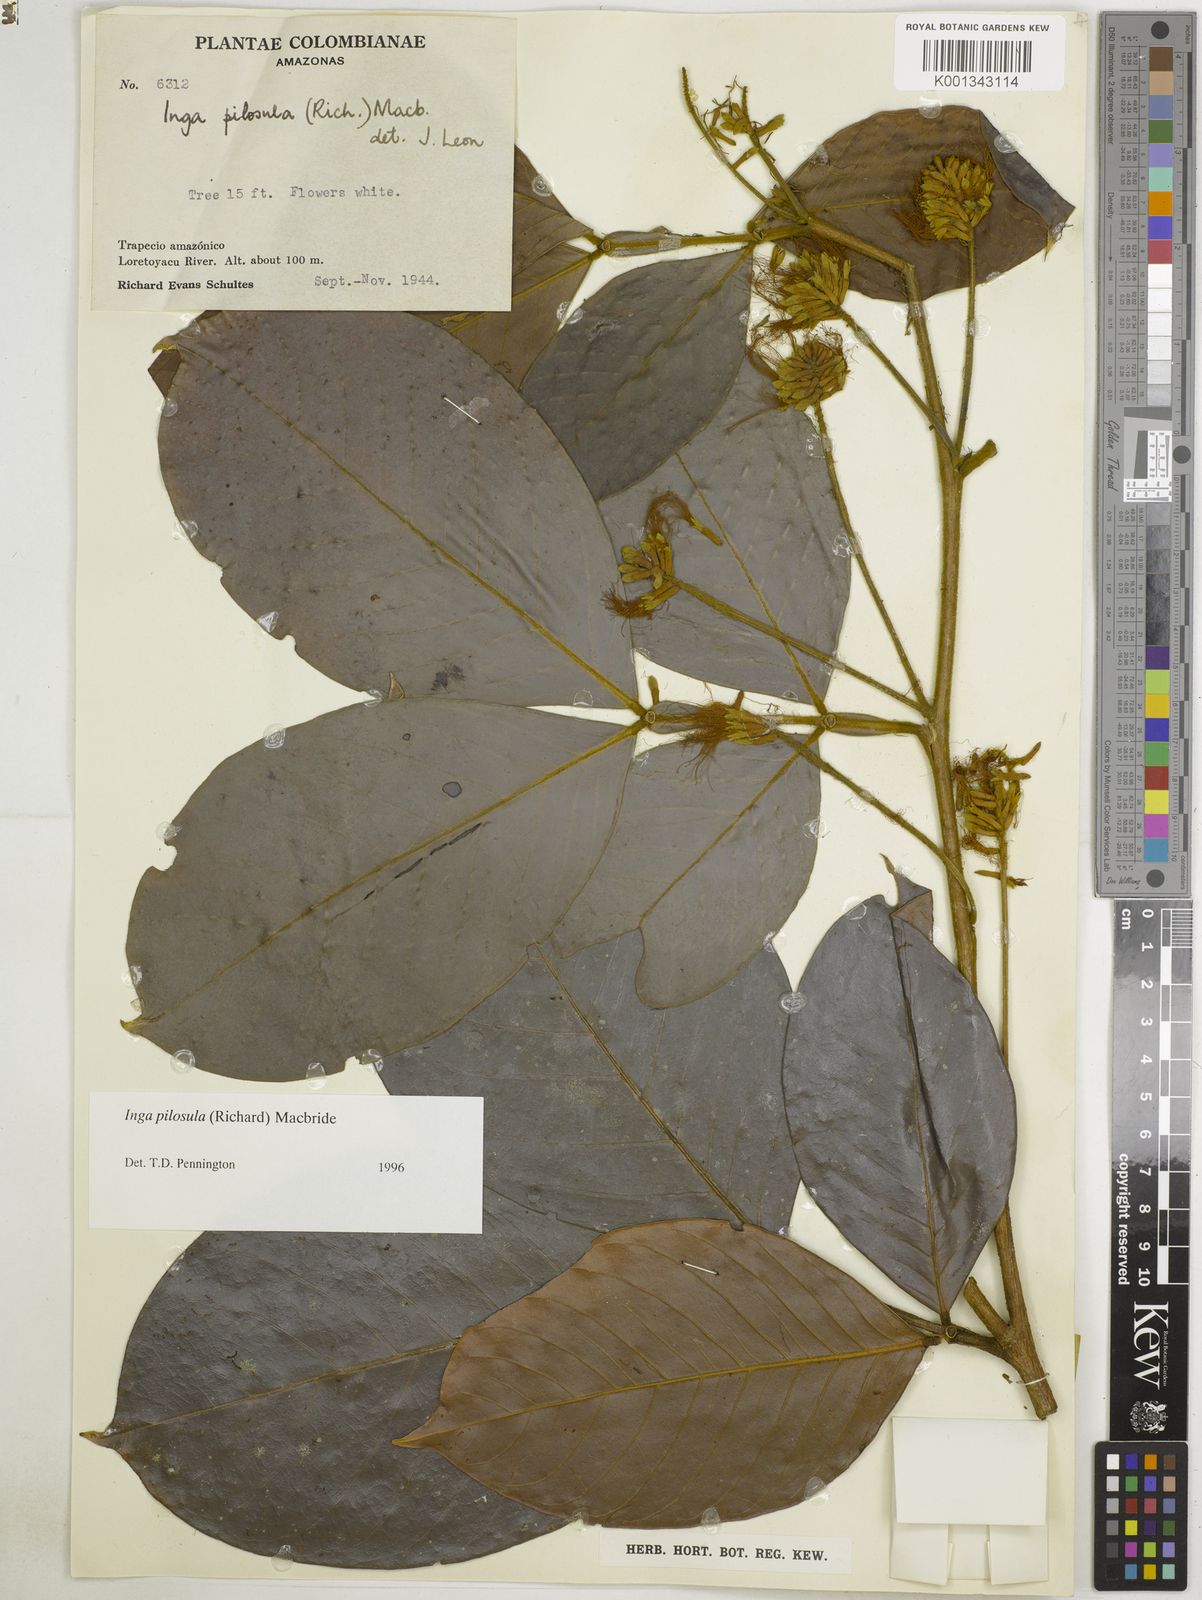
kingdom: Plantae
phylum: Tracheophyta
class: Magnoliopsida
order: Fabales
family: Fabaceae
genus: Inga
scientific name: Inga pilosula
